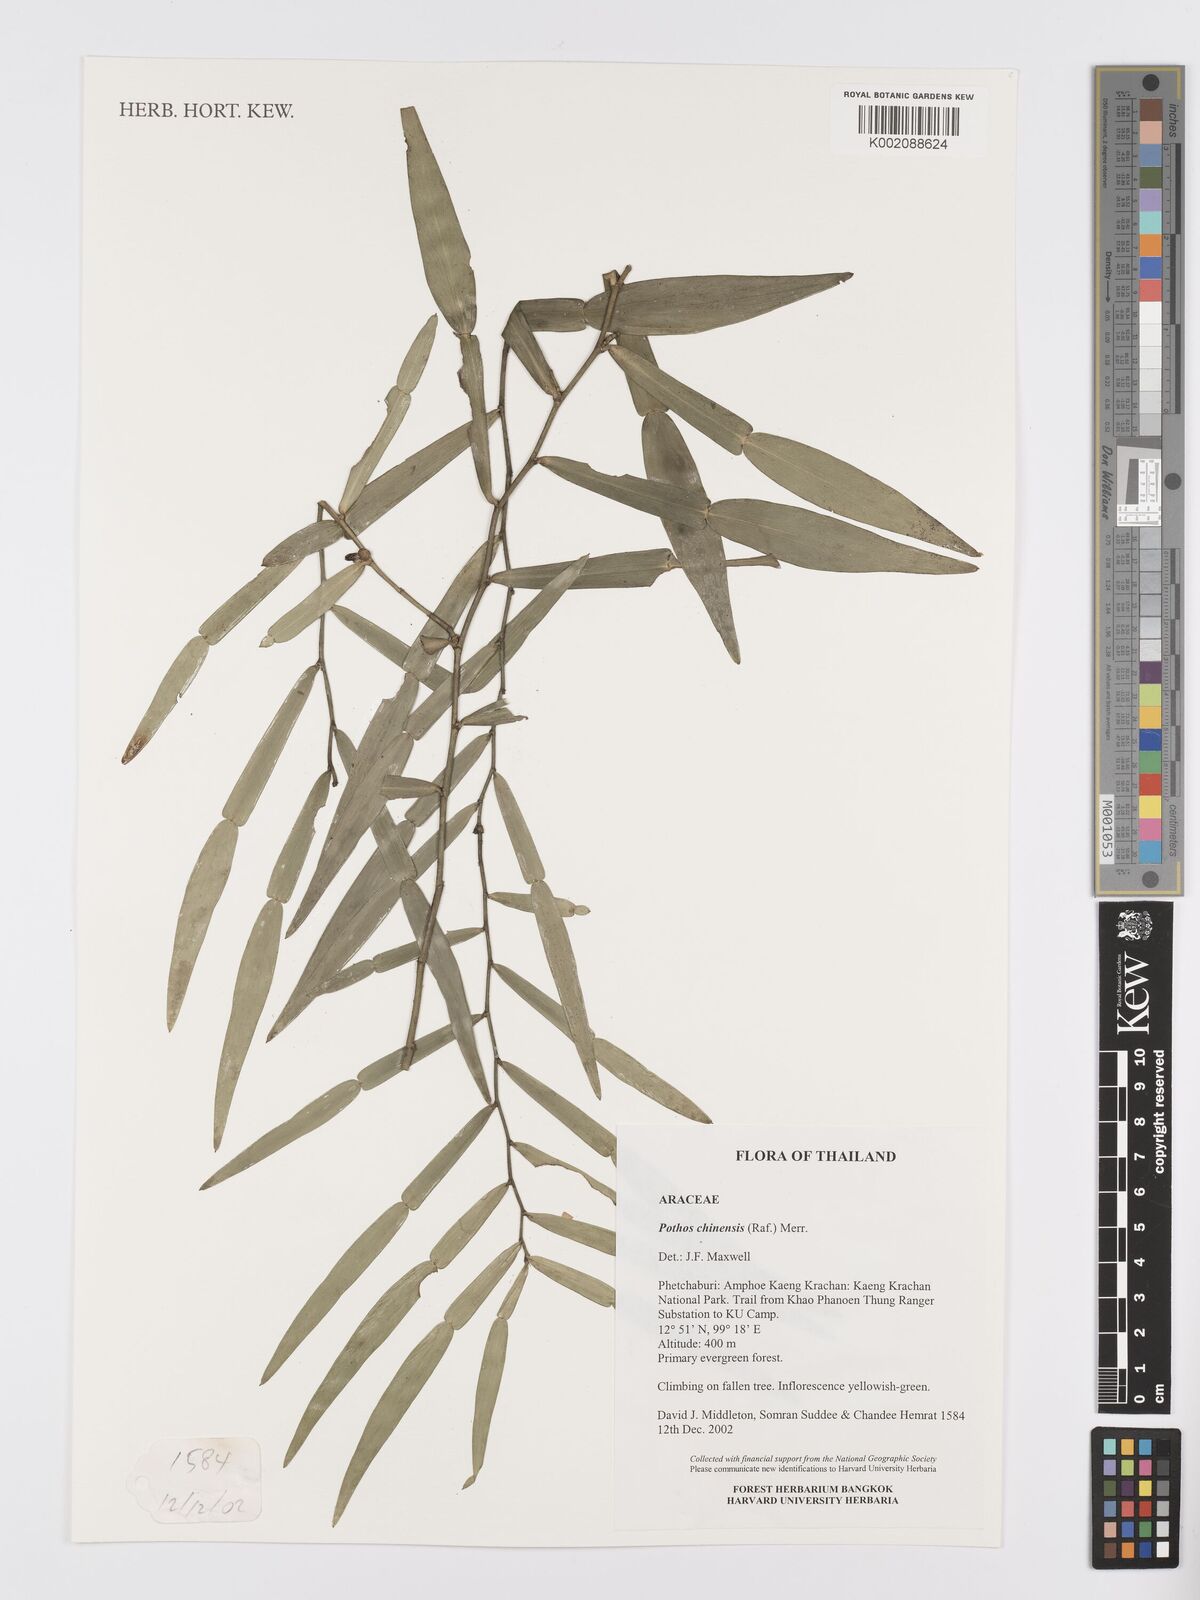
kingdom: Plantae
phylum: Tracheophyta
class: Liliopsida
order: Alismatales
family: Araceae
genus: Pothos
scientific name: Pothos chinensis
